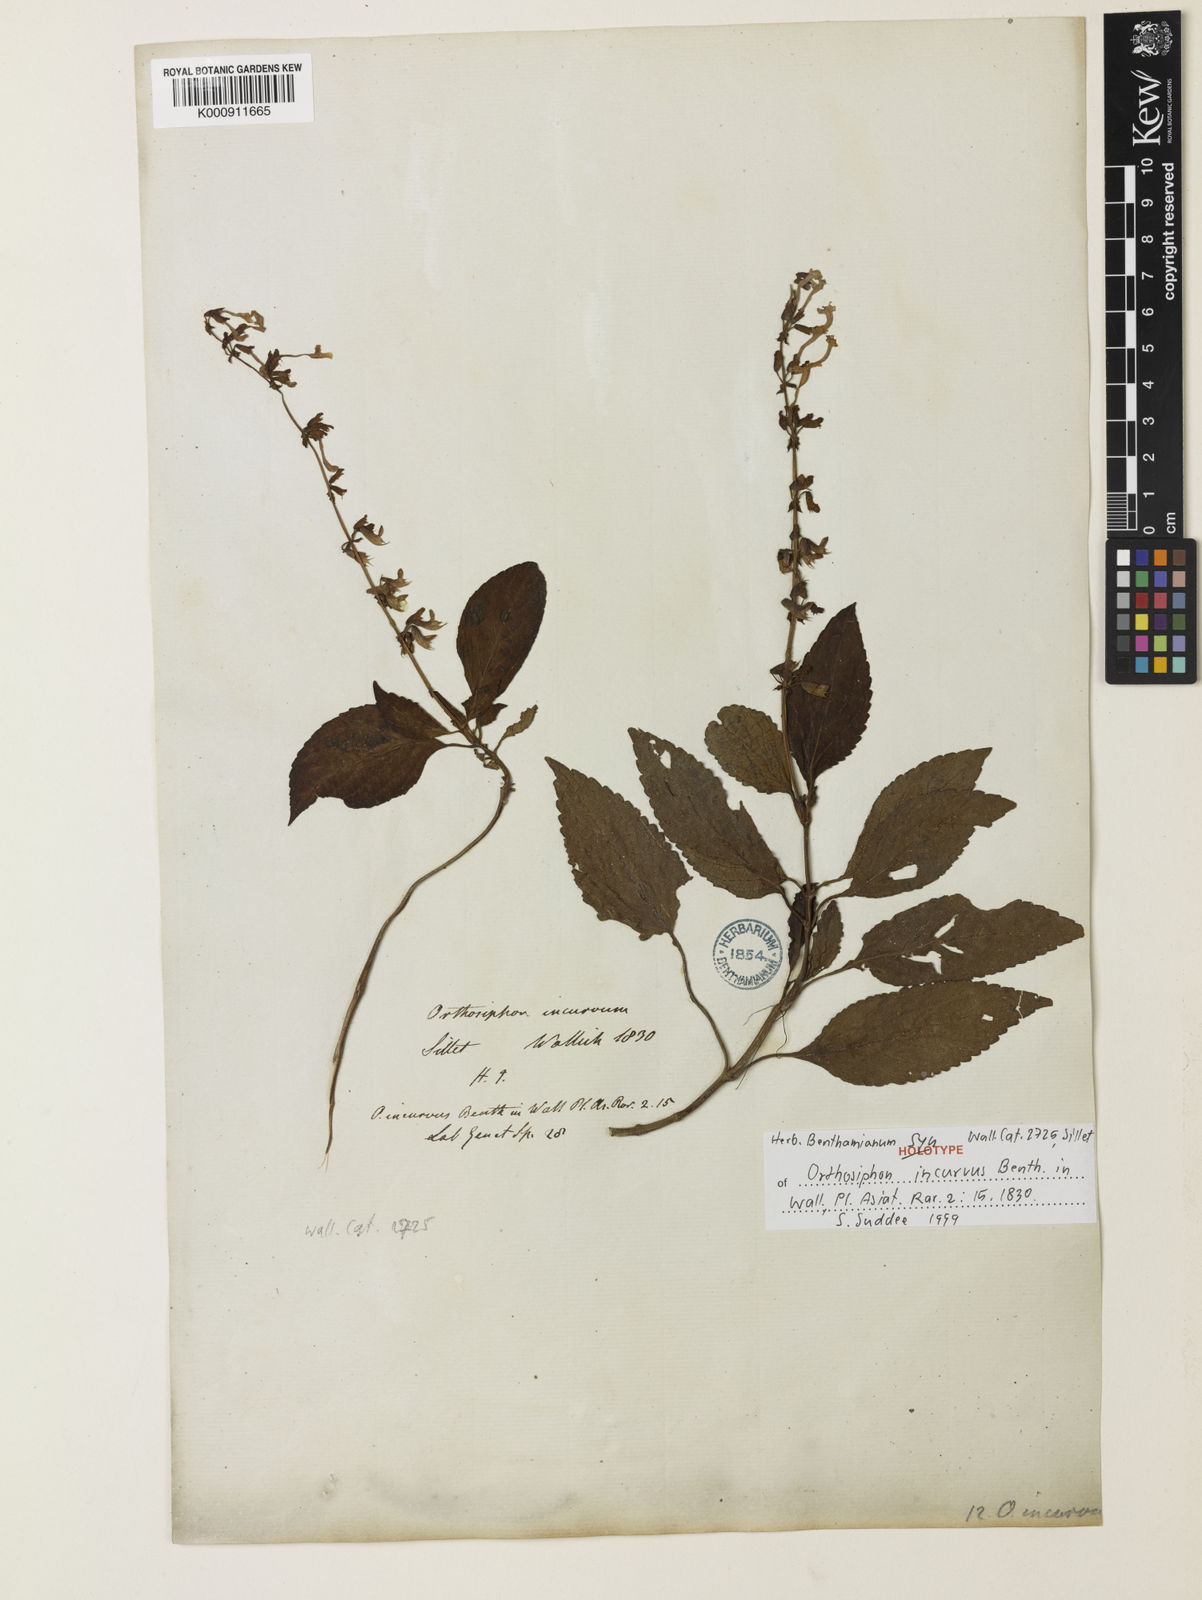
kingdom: Plantae
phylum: Tracheophyta
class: Magnoliopsida
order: Lamiales
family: Lamiaceae
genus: Orthosiphon
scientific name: Orthosiphon incurvus
